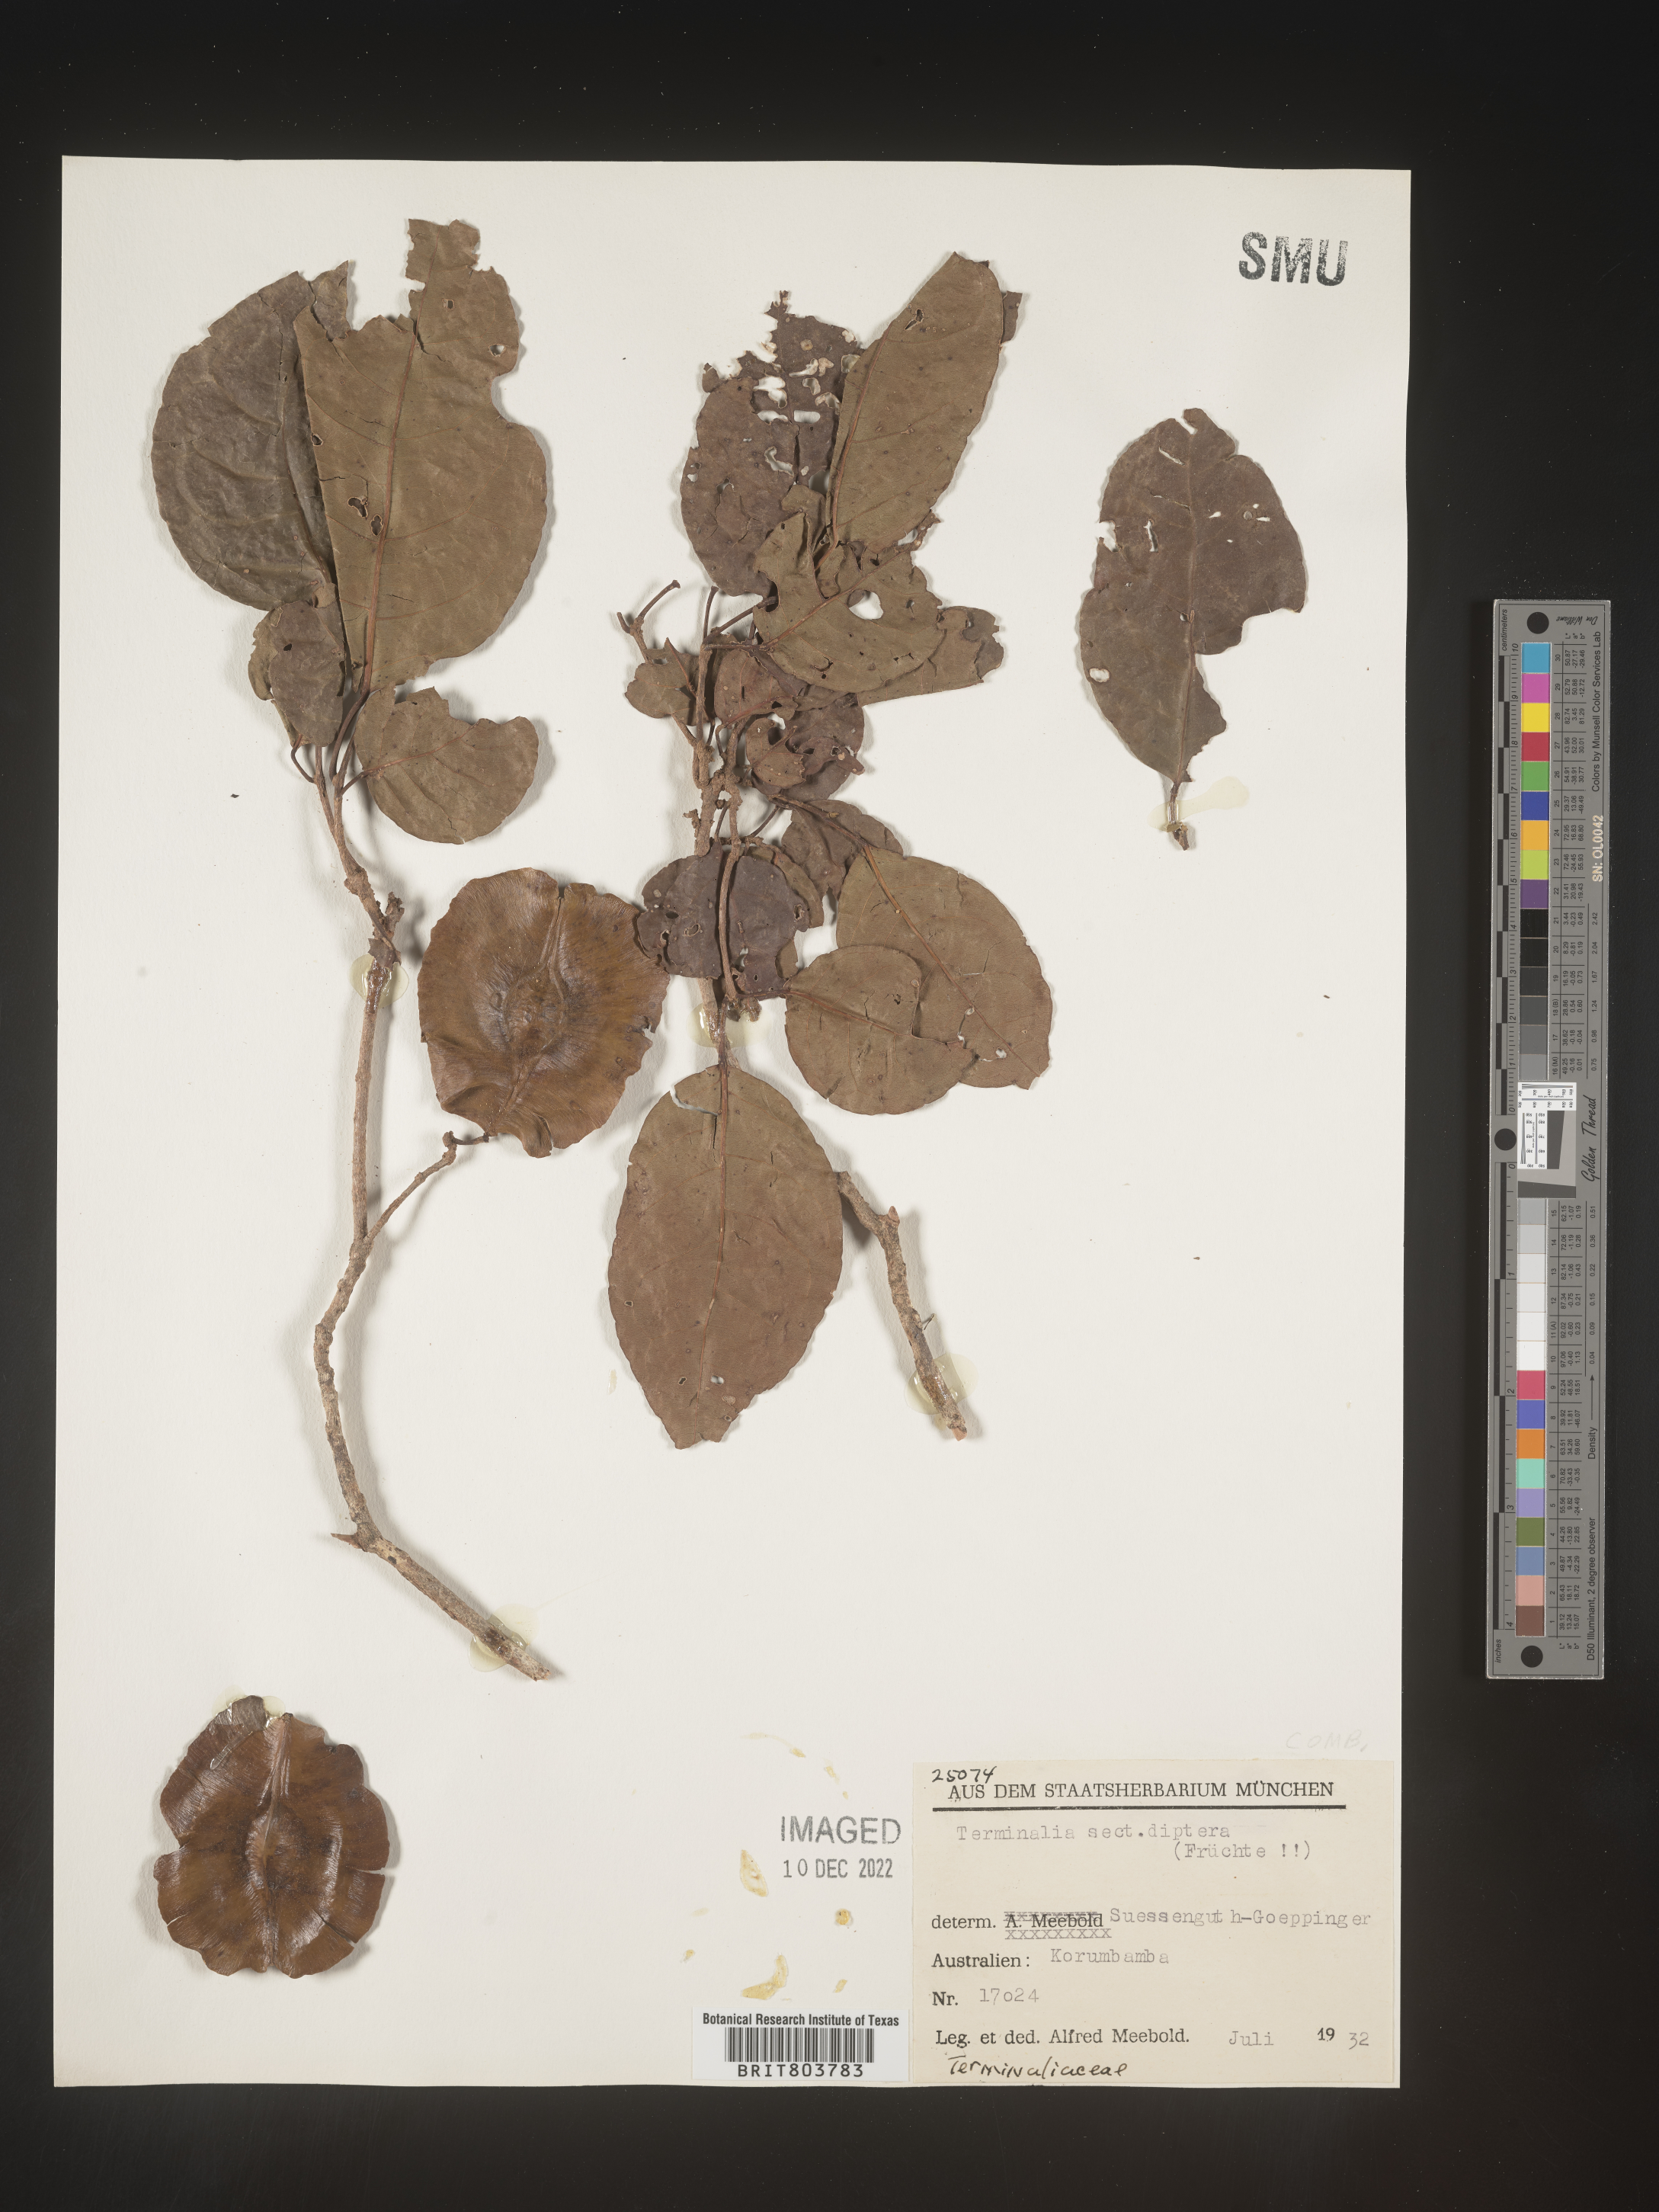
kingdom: Plantae
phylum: Tracheophyta
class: Magnoliopsida
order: Myrtales
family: Combretaceae
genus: Terminalia
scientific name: Terminalia
